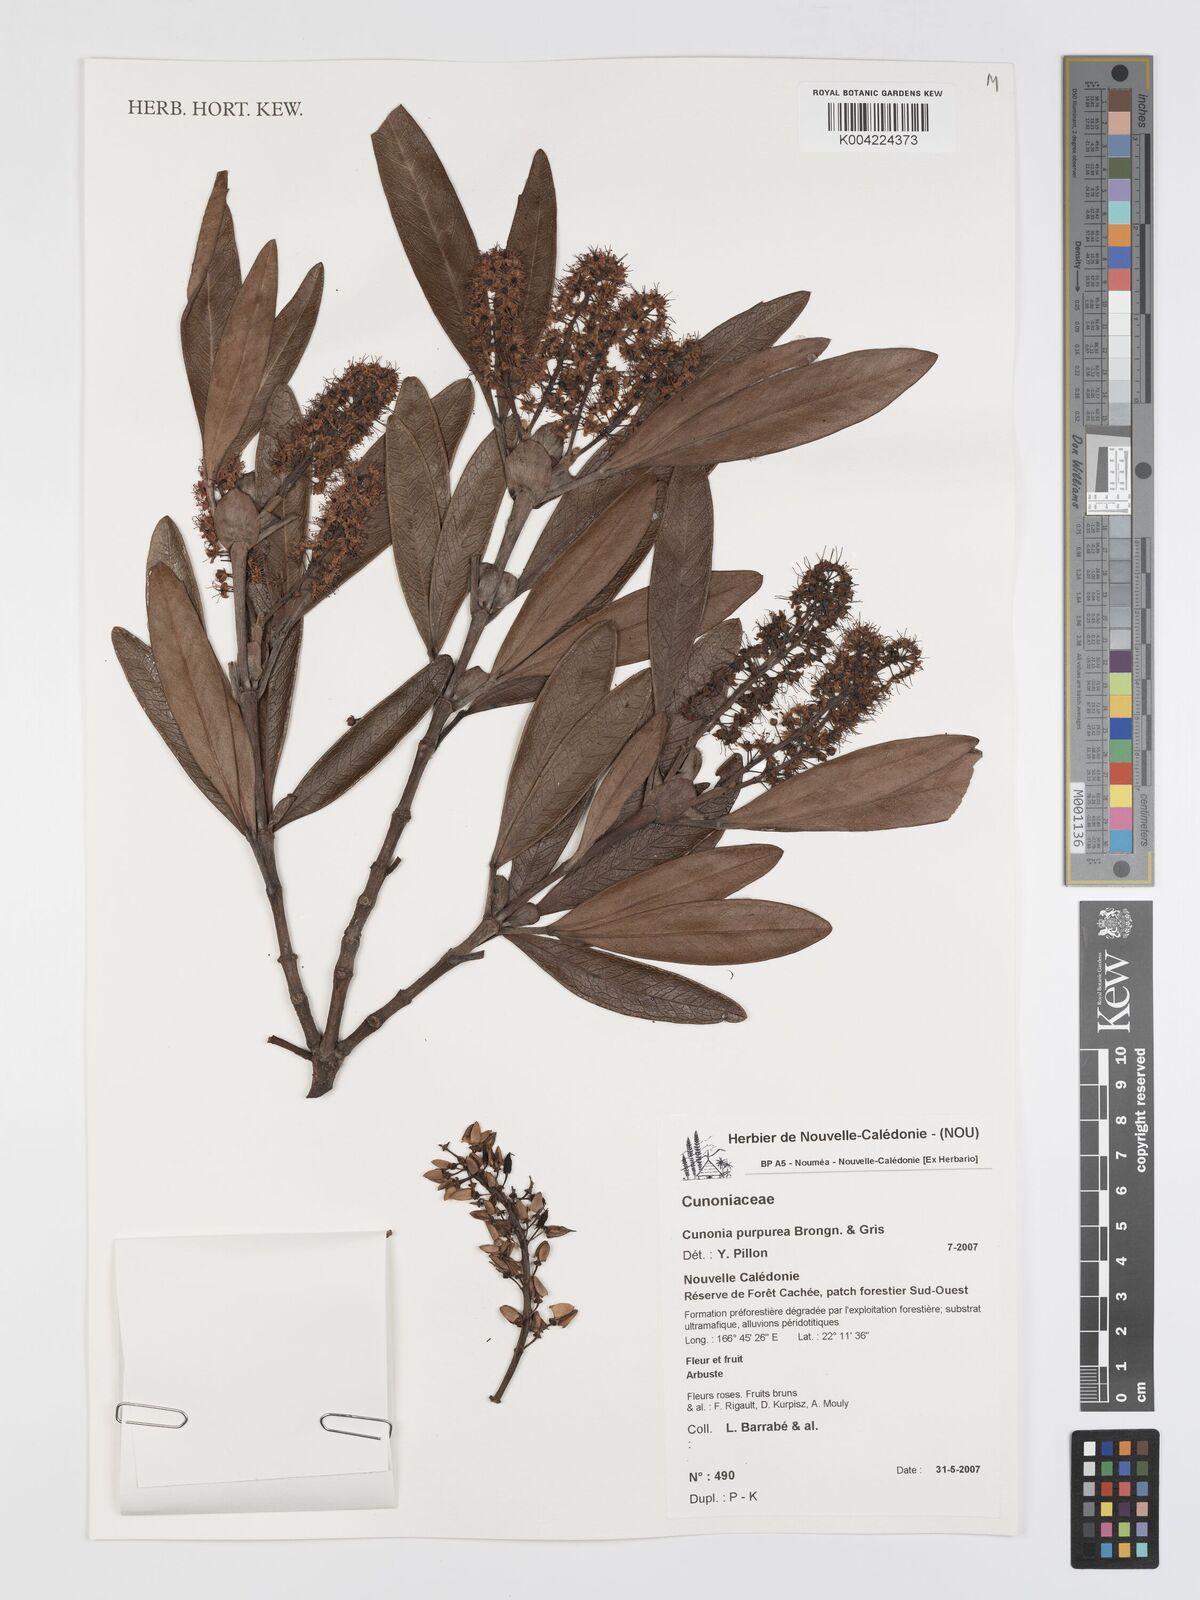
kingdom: Plantae
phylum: Tracheophyta
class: Magnoliopsida
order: Oxalidales
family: Cunoniaceae
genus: Cunonia
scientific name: Cunonia purpurea
